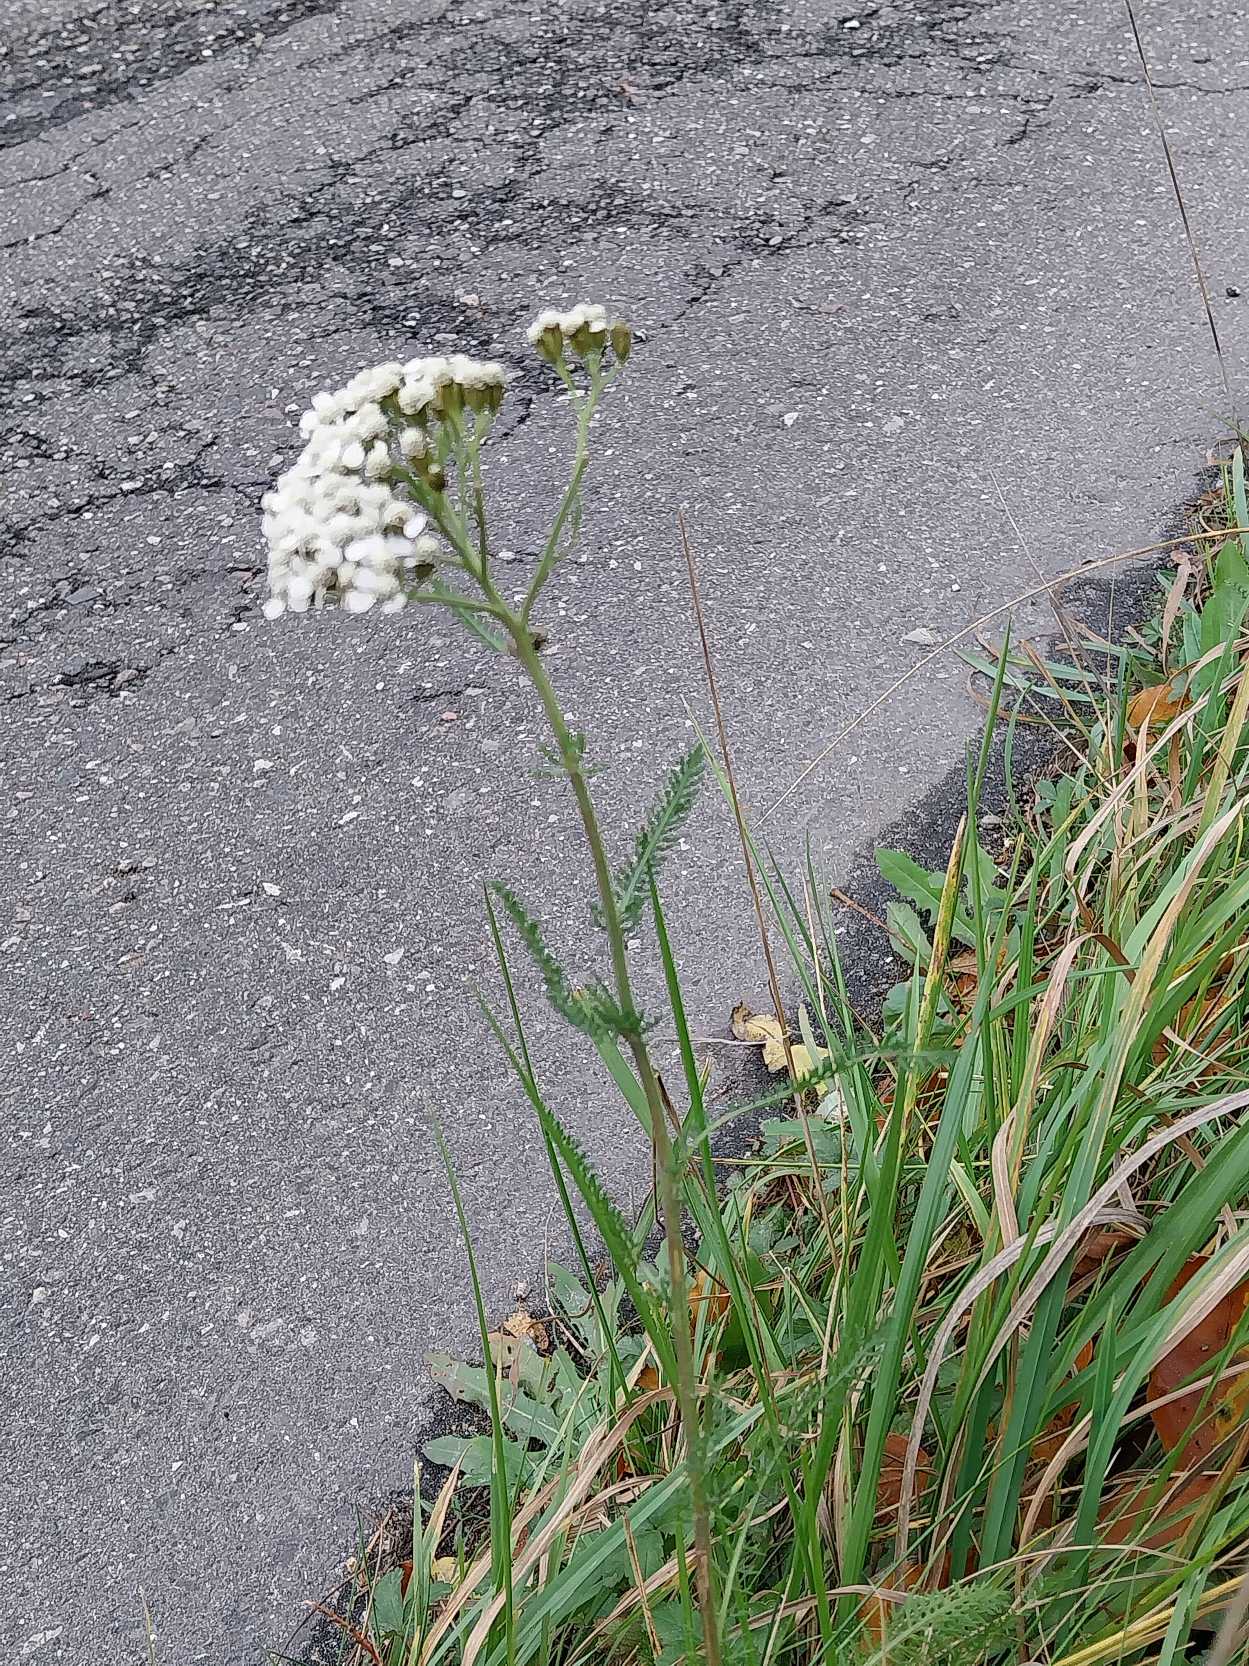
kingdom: Plantae
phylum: Tracheophyta
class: Magnoliopsida
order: Asterales
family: Asteraceae
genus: Achillea
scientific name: Achillea millefolium
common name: Almindelig røllike
